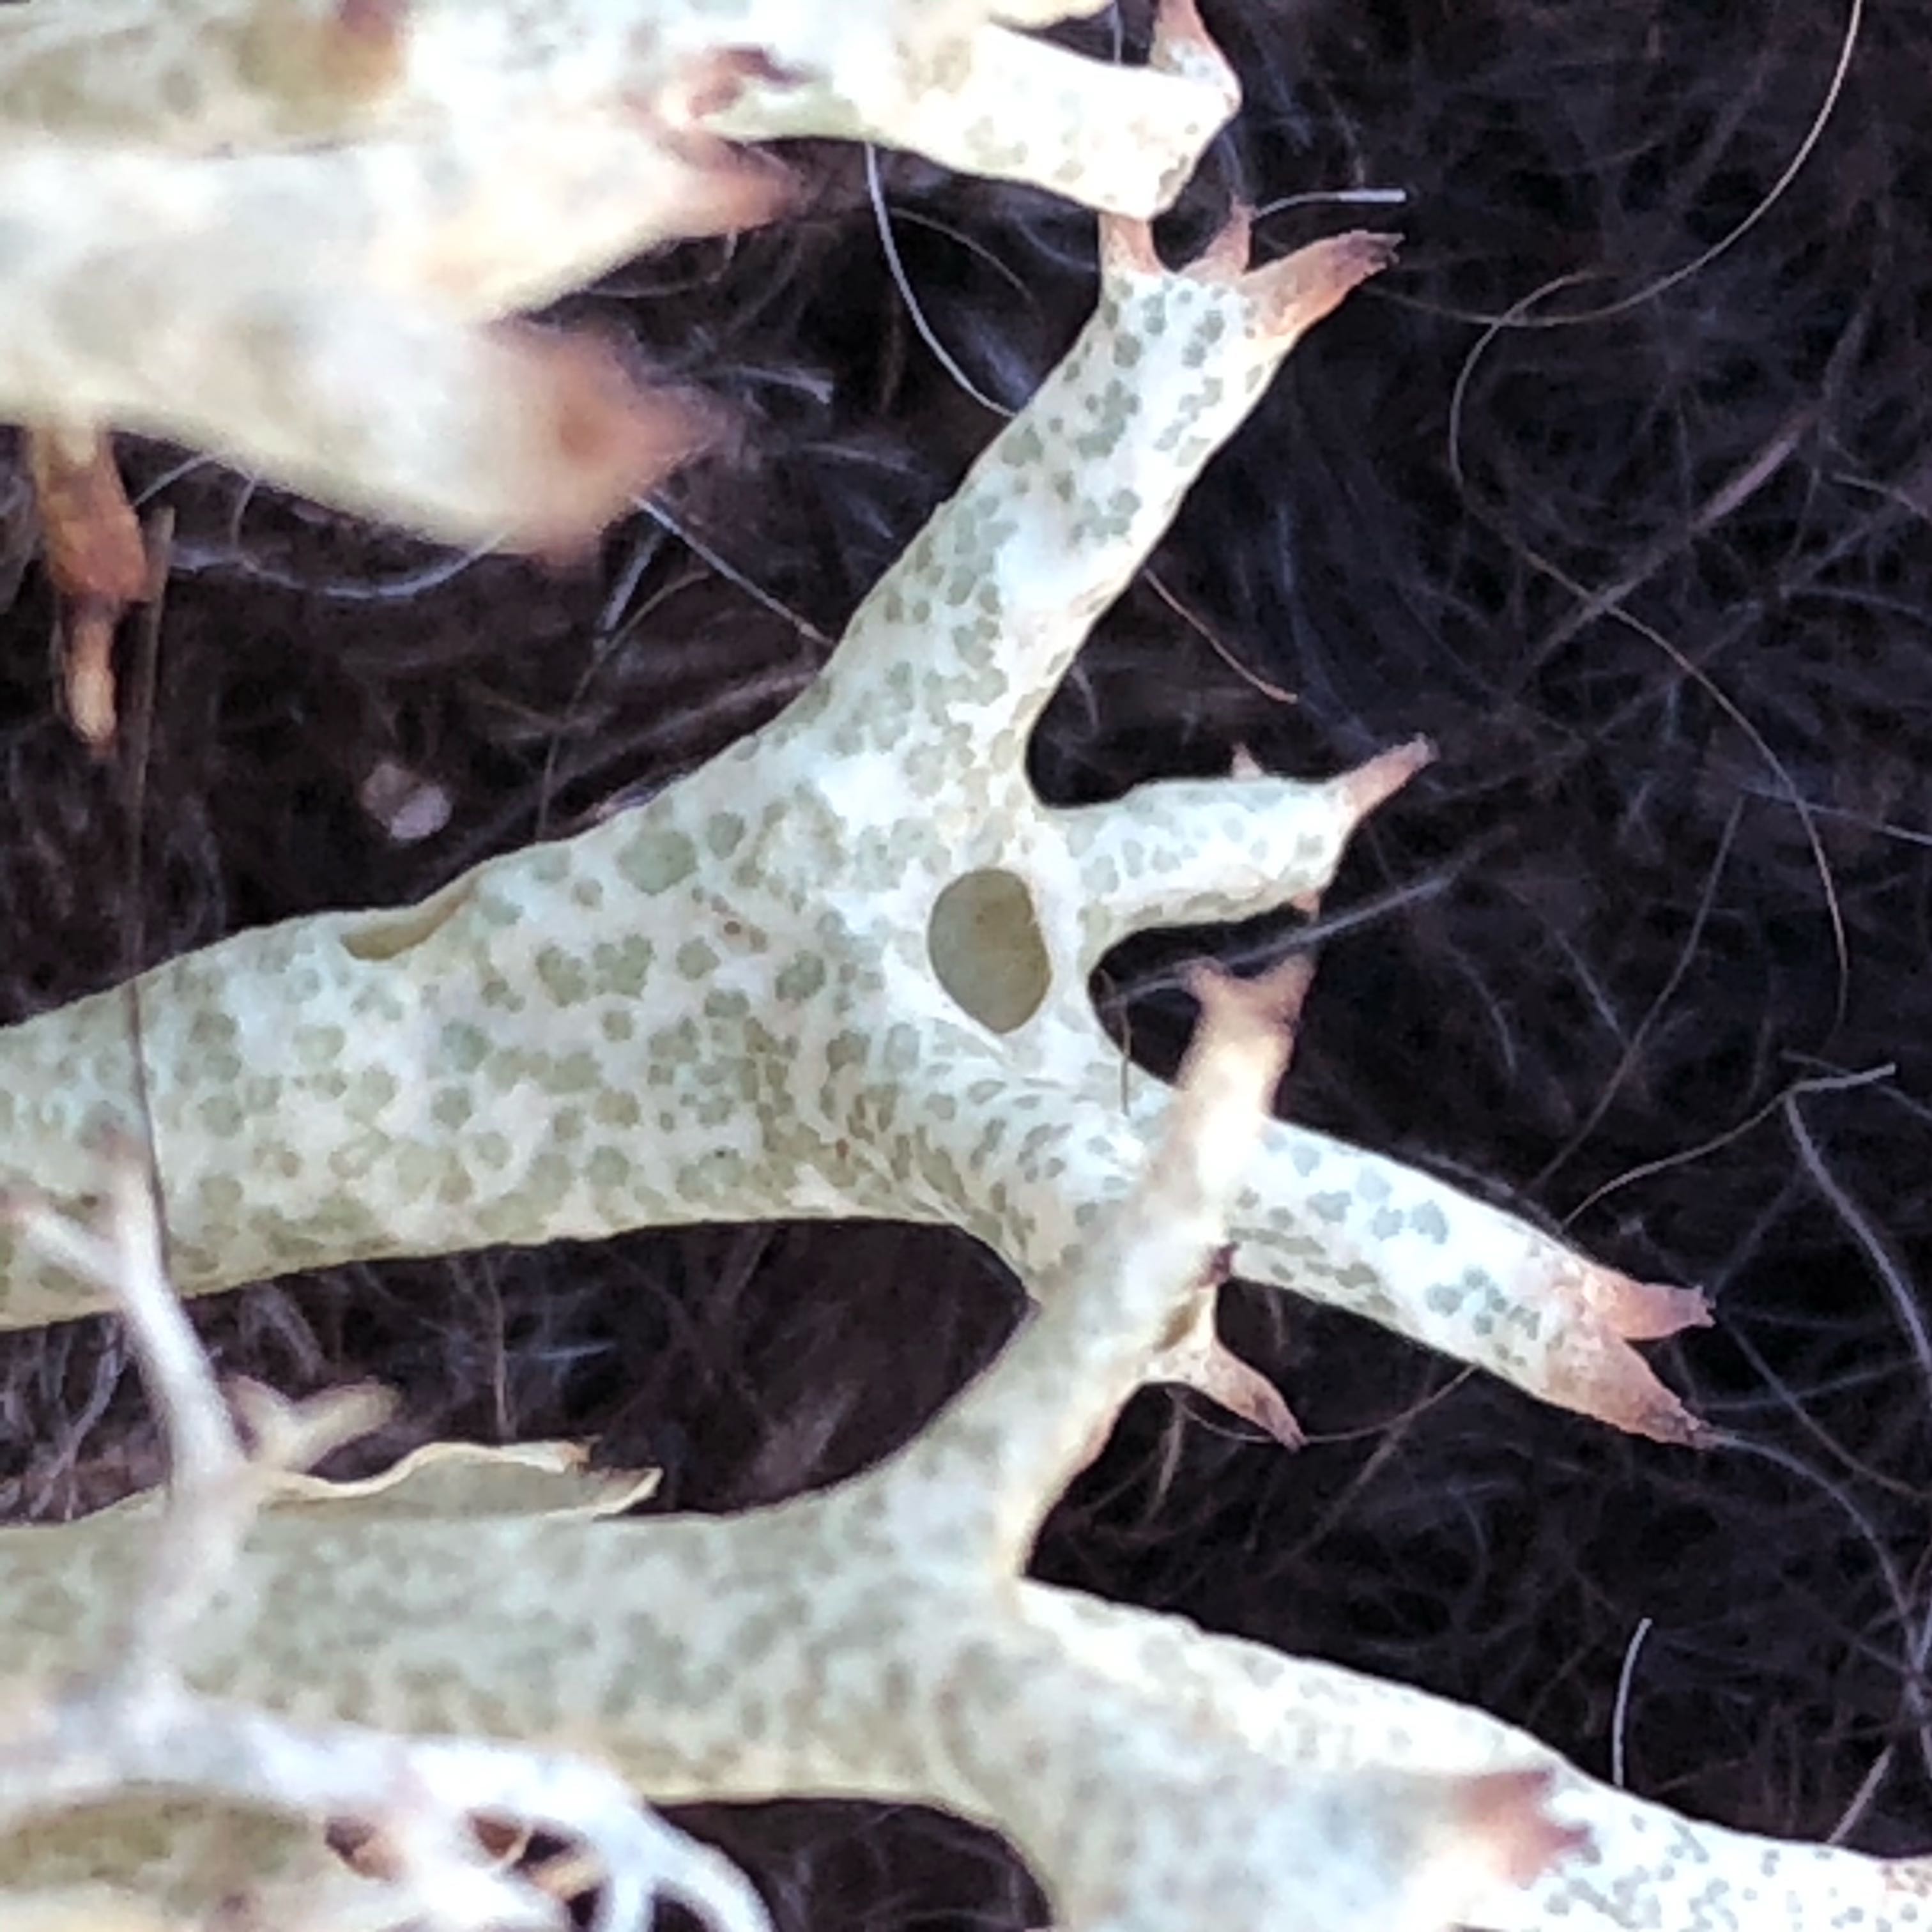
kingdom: Fungi
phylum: Ascomycota
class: Lecanoromycetes
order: Lecanorales
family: Cladoniaceae
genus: Cladonia
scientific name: Cladonia uncialis
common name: pigget bægerlav
